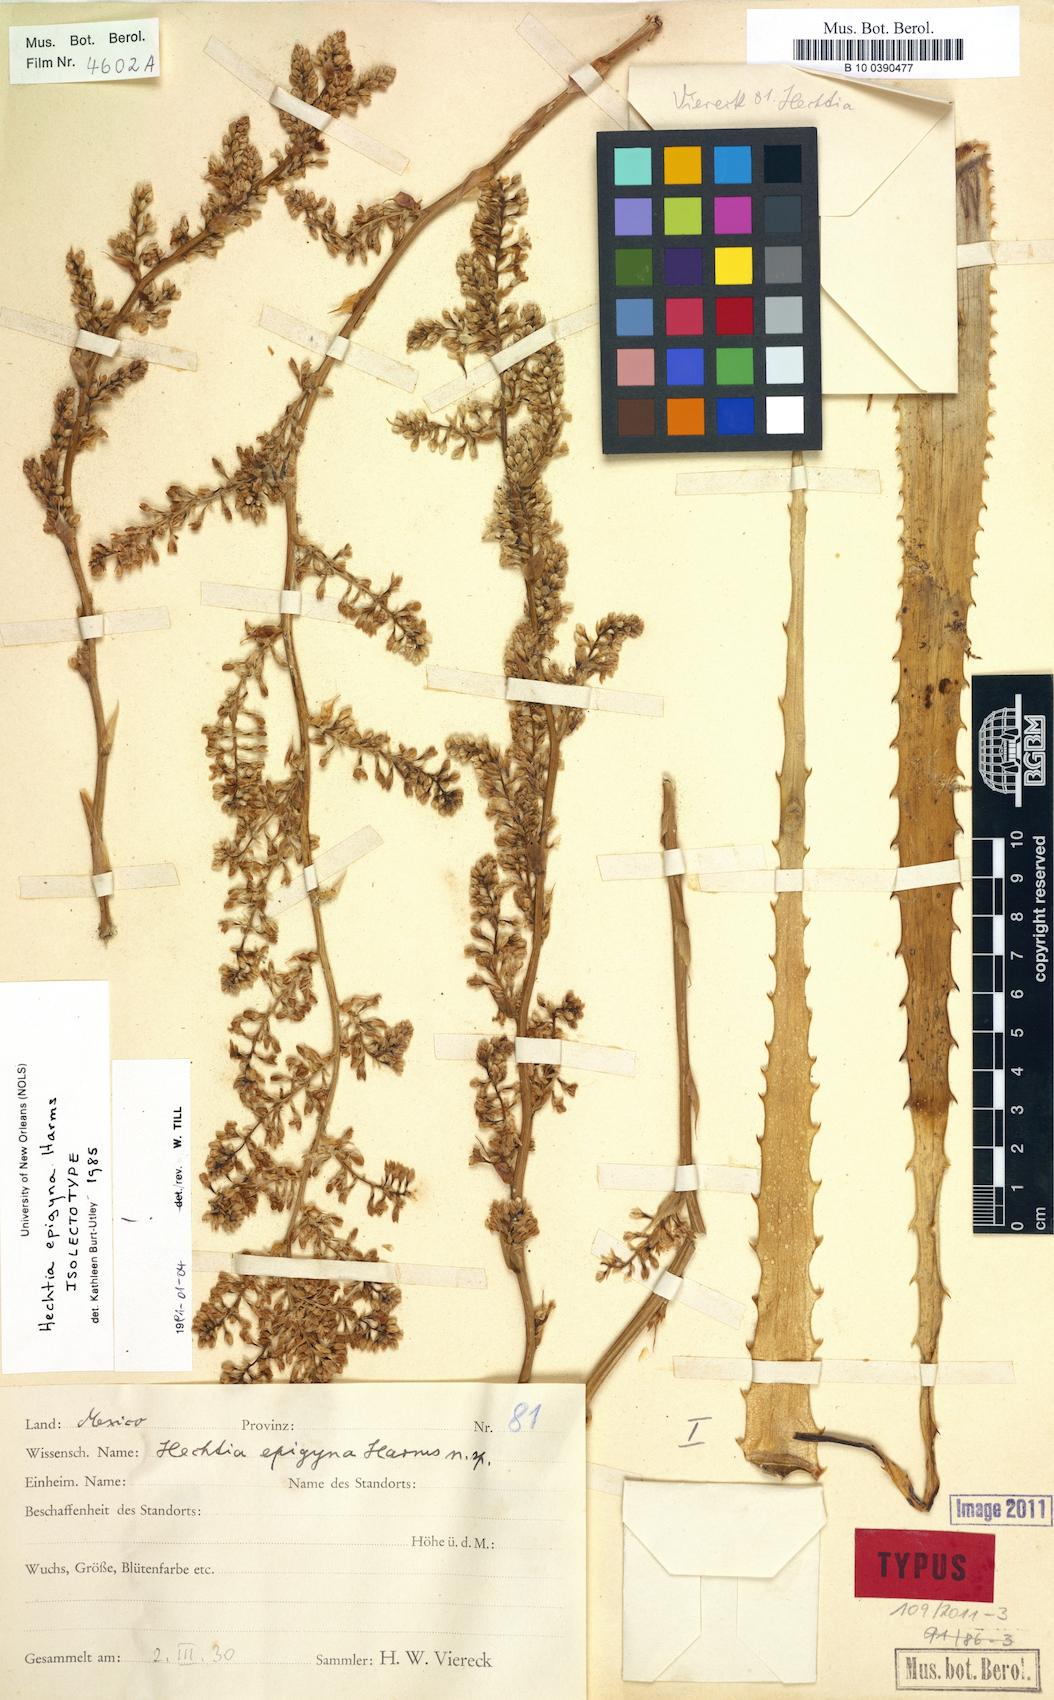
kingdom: Plantae
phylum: Tracheophyta
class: Liliopsida
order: Poales
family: Bromeliaceae
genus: Hechtia
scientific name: Hechtia epigyna
